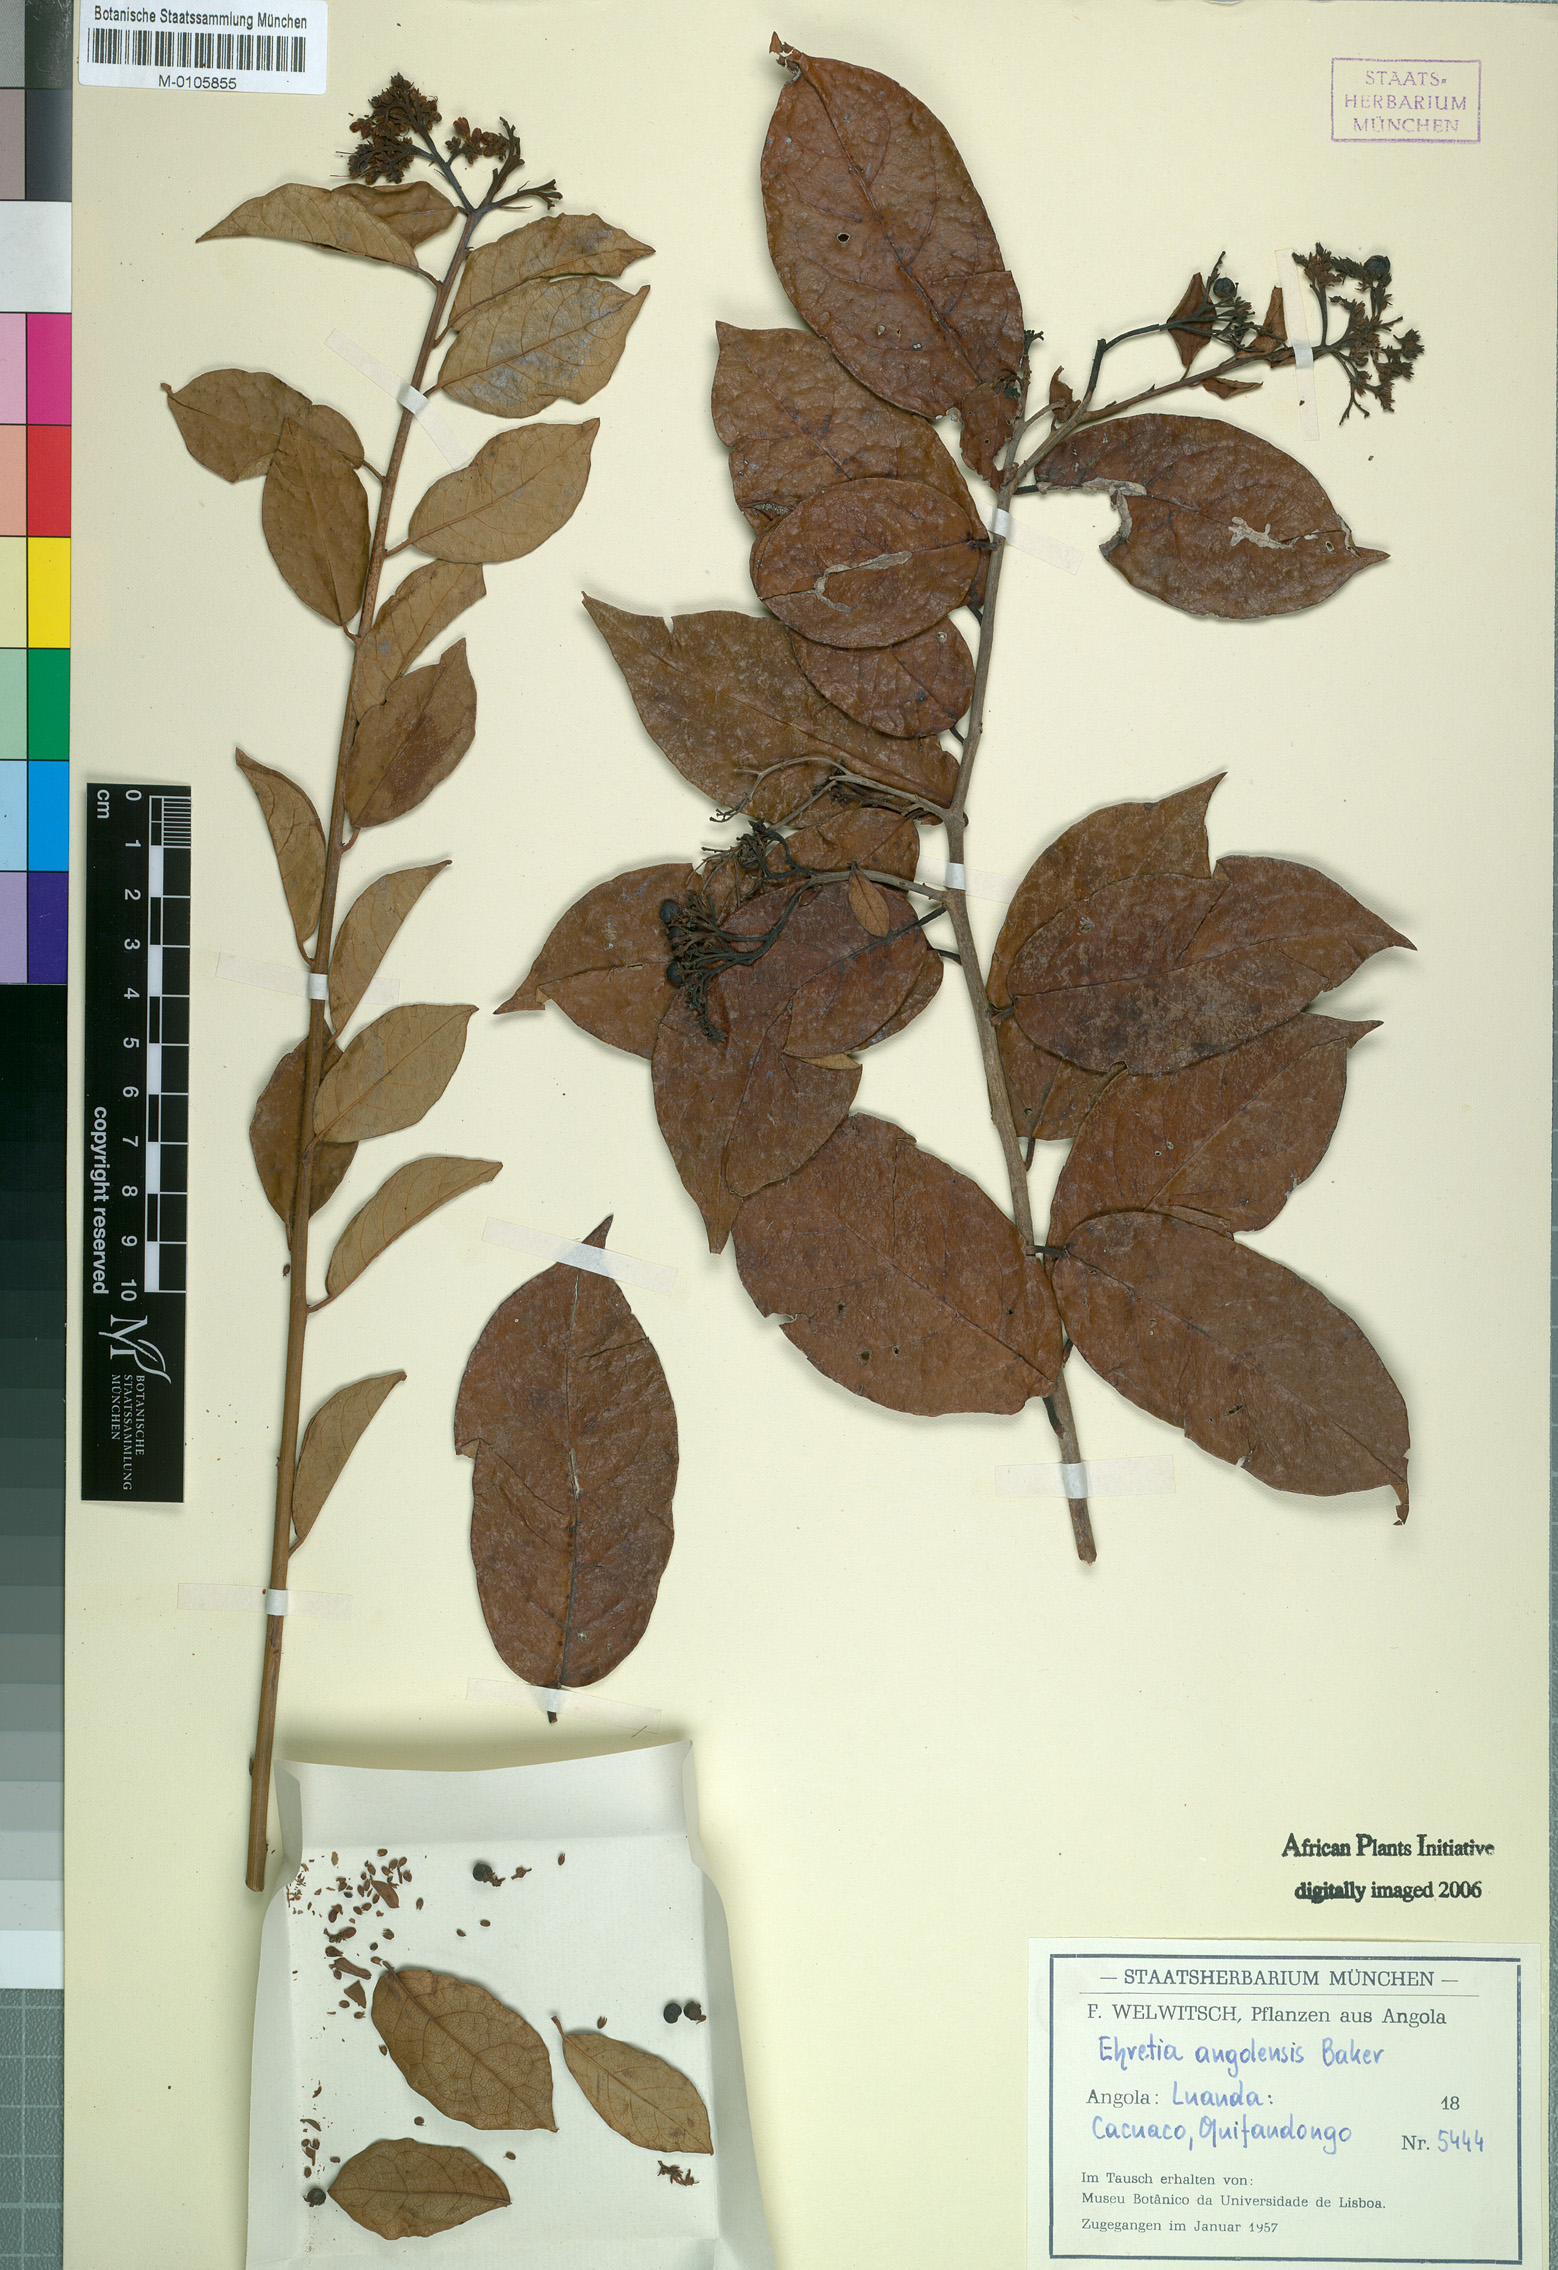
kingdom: Plantae
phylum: Tracheophyta
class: Magnoliopsida
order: Boraginales
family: Ehretiaceae
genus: Ehretia
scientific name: Ehretia angolensis
